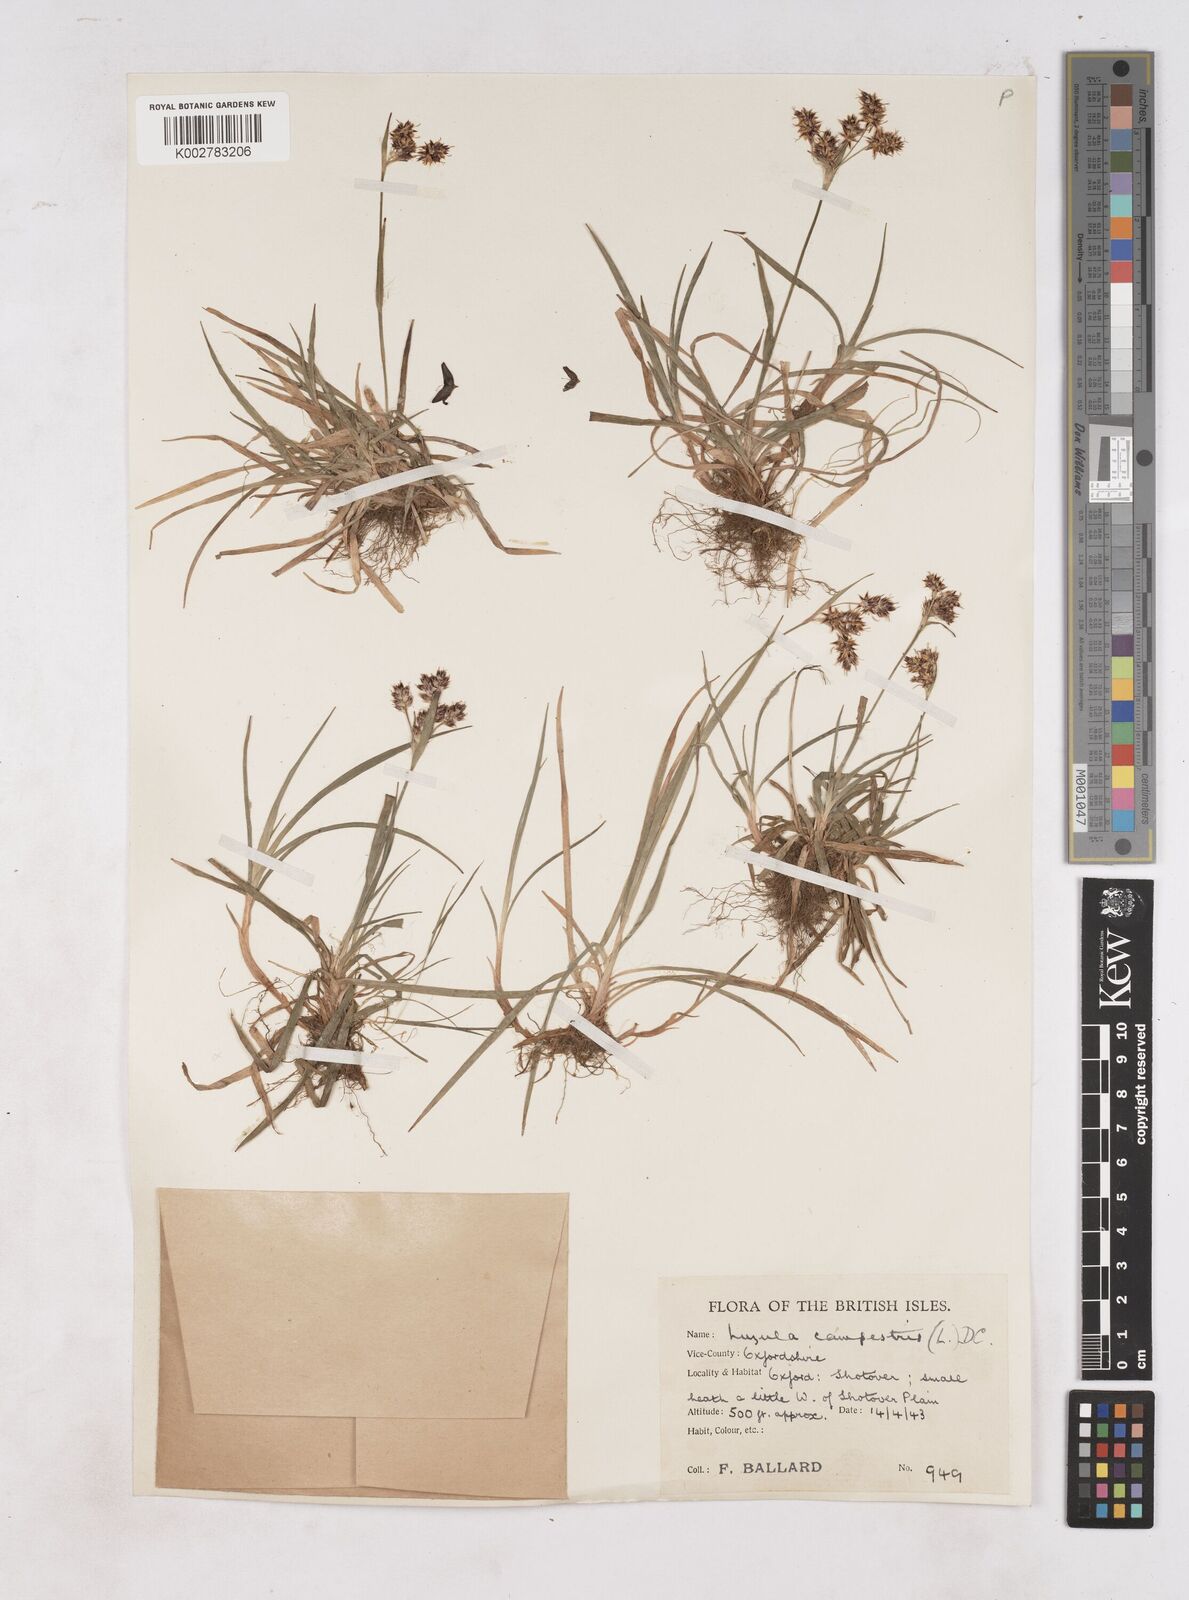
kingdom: Plantae
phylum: Tracheophyta
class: Liliopsida
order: Poales
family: Juncaceae
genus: Luzula
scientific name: Luzula multiflora
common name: Heath wood-rush
